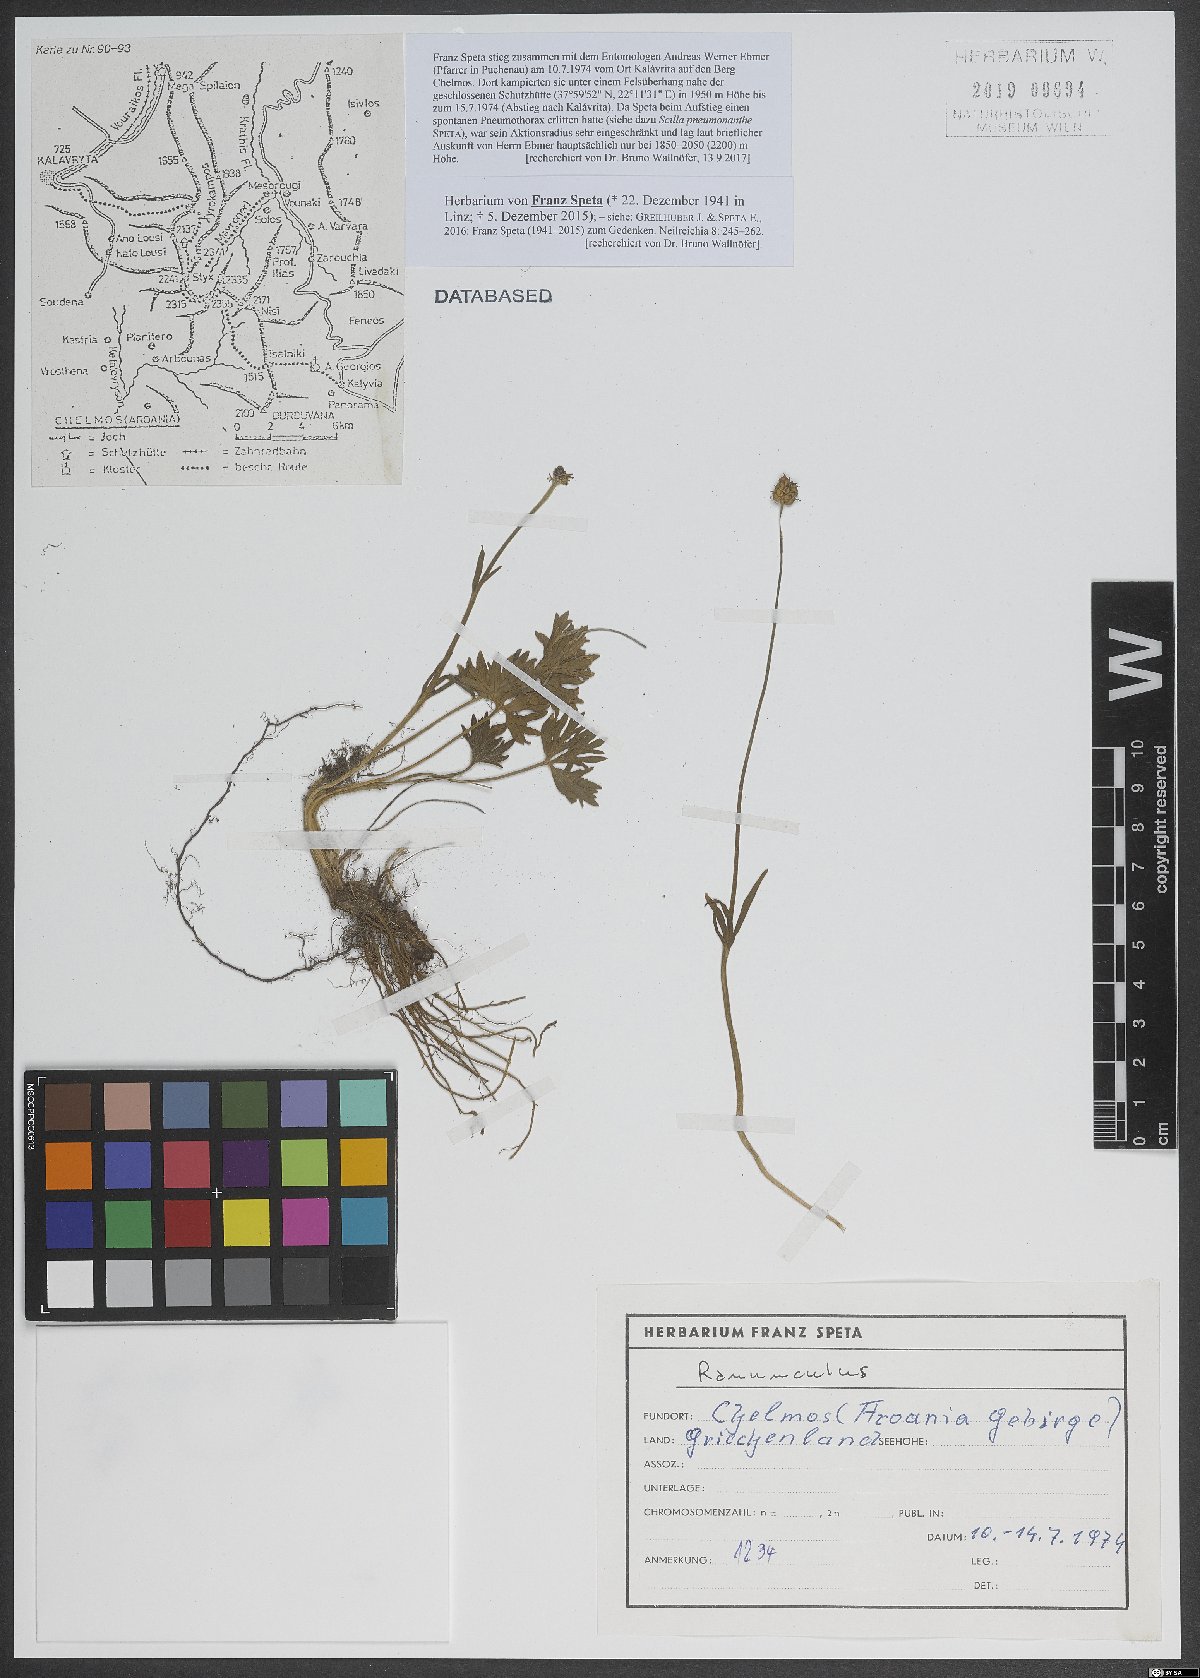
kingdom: Plantae
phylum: Tracheophyta
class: Magnoliopsida
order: Ranunculales
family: Ranunculaceae
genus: Ranunculus
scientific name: Ranunculus
